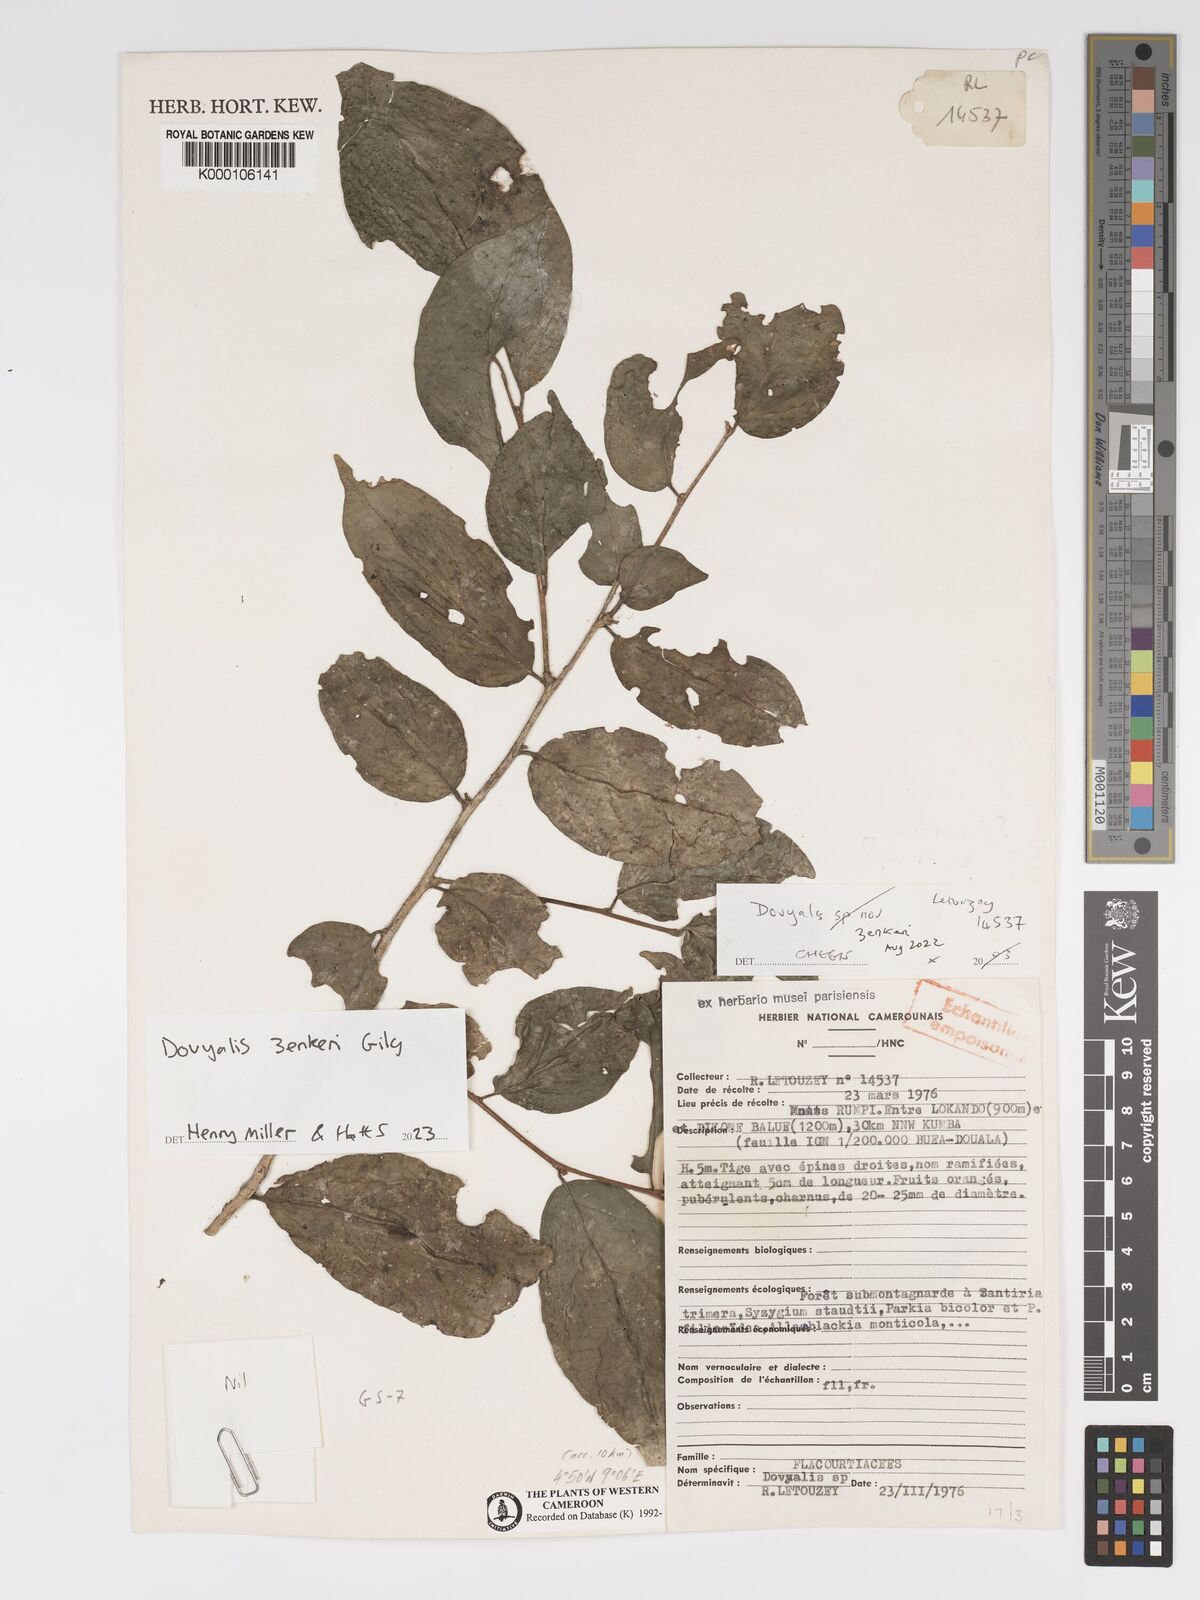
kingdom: Plantae
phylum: Tracheophyta
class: Magnoliopsida
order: Malpighiales
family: Salicaceae
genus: Dovyalis
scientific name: Dovyalis
